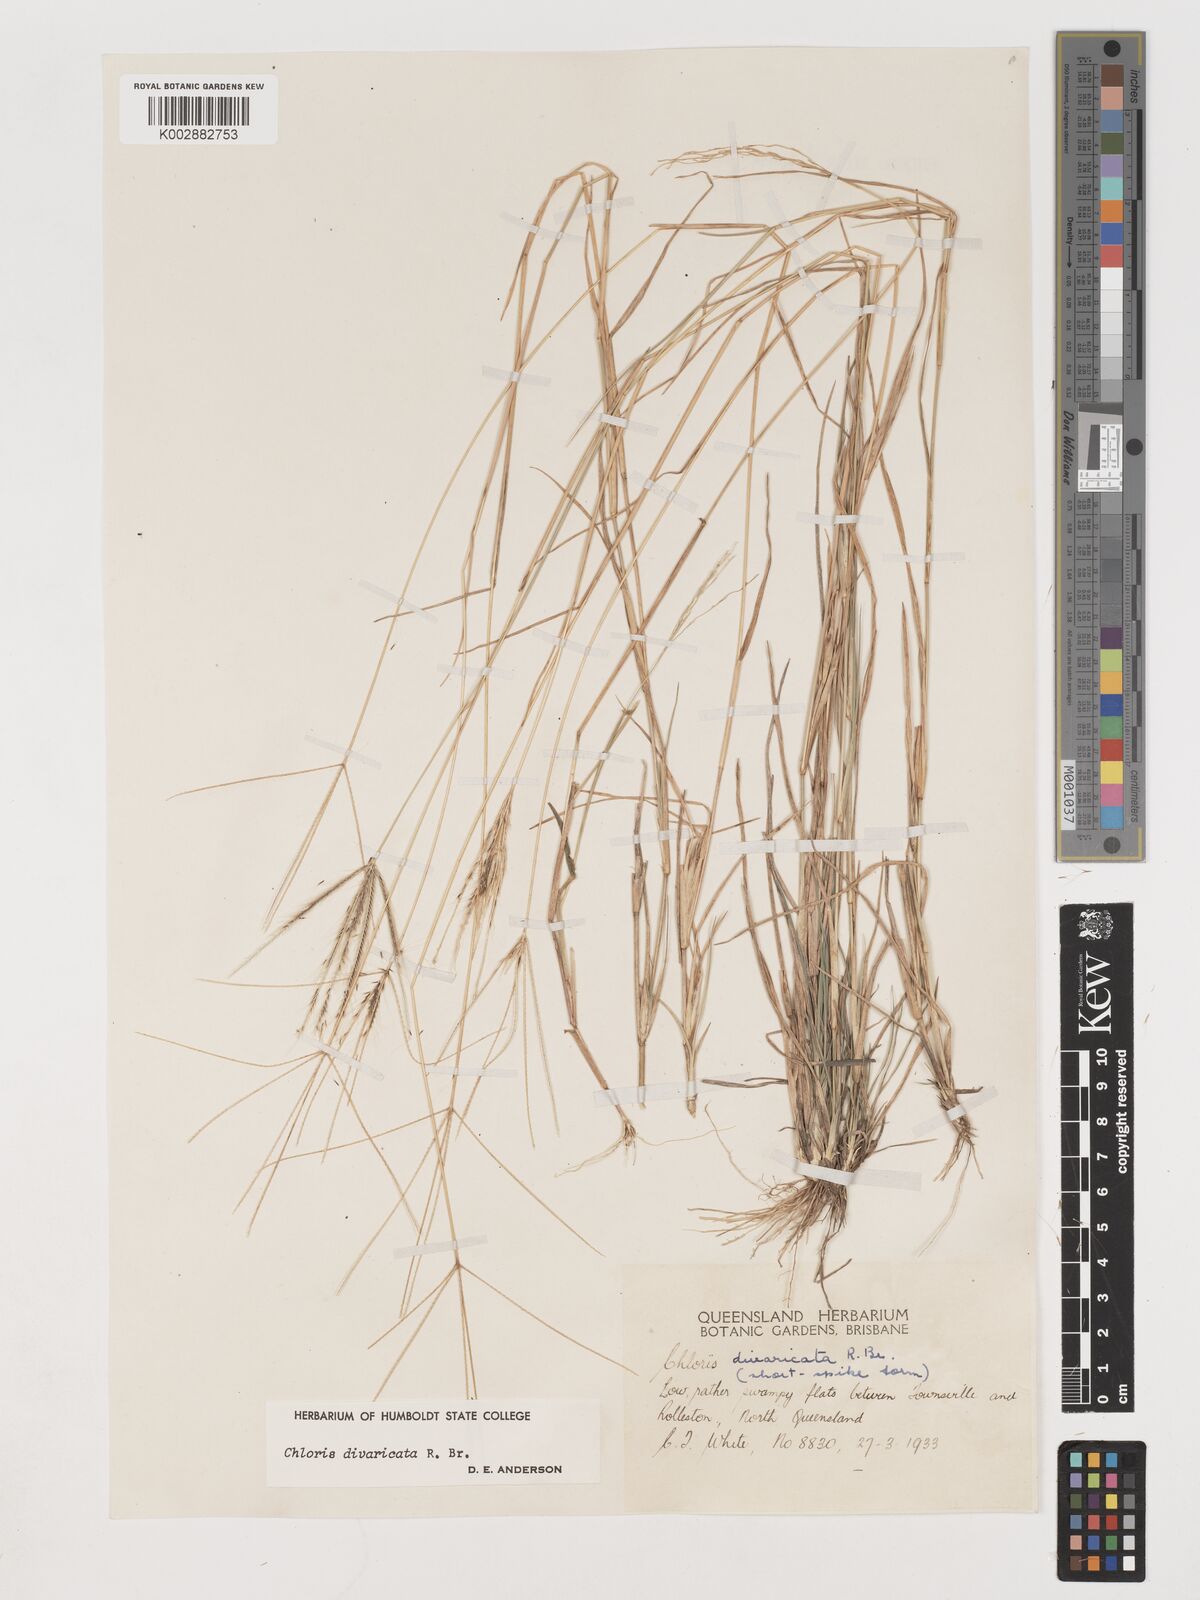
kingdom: Plantae
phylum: Tracheophyta
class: Liliopsida
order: Poales
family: Poaceae
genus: Chloris
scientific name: Chloris divaricata
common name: Spreading windmill grass
